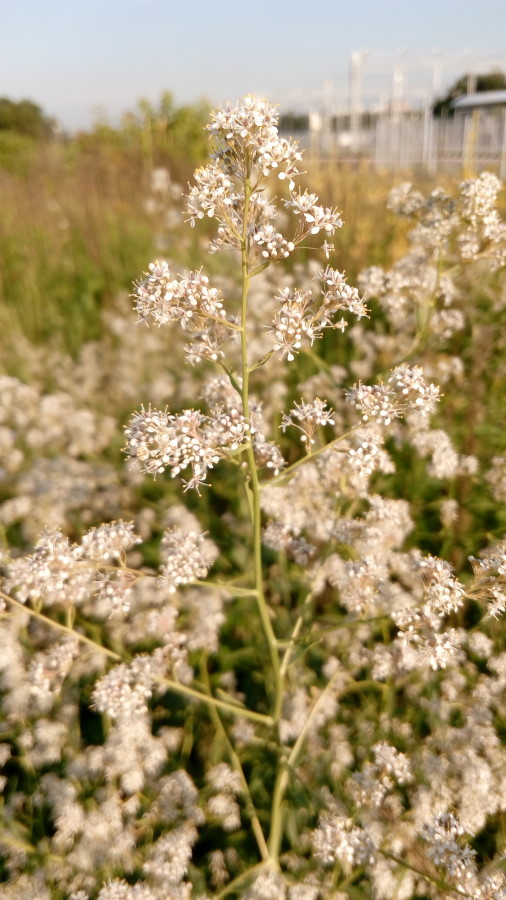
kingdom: Plantae
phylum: Tracheophyta
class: Magnoliopsida
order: Brassicales
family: Brassicaceae
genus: Lepidium
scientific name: Lepidium latifolium
